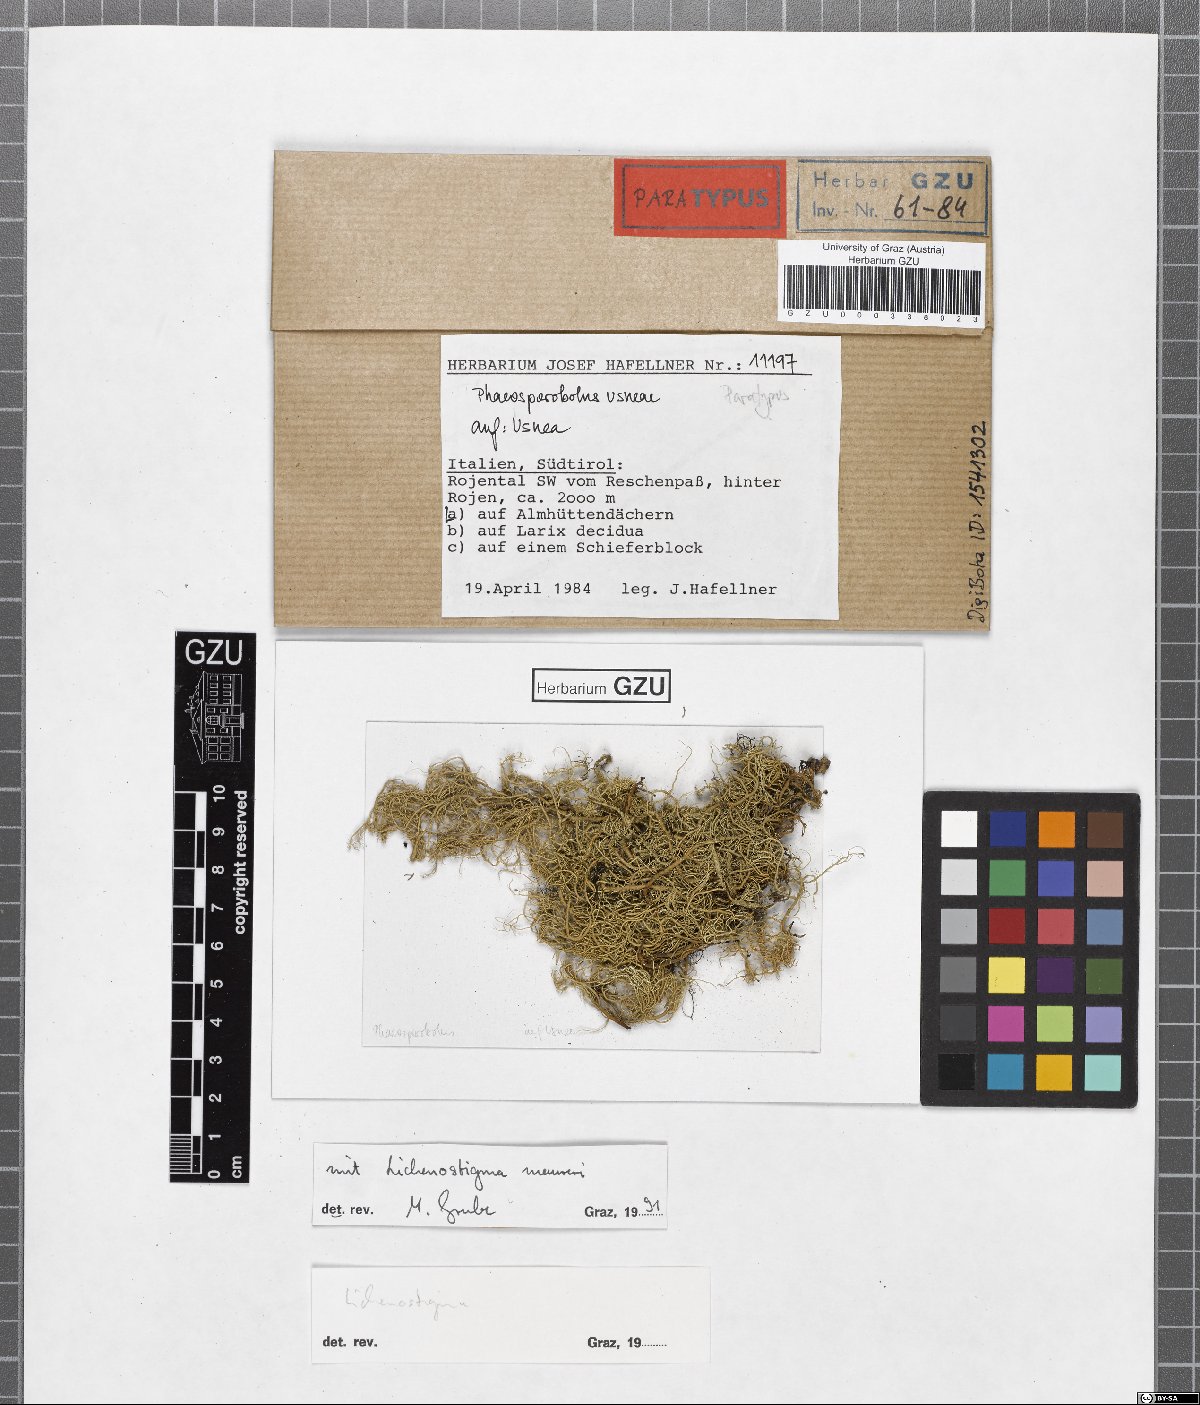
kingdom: Fungi
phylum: Ascomycota
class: Arthoniomycetes
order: Lichenostigmatales
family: Phaeococcomycetaceae
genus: Phaeosporobolus
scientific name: Phaeosporobolus usneae
